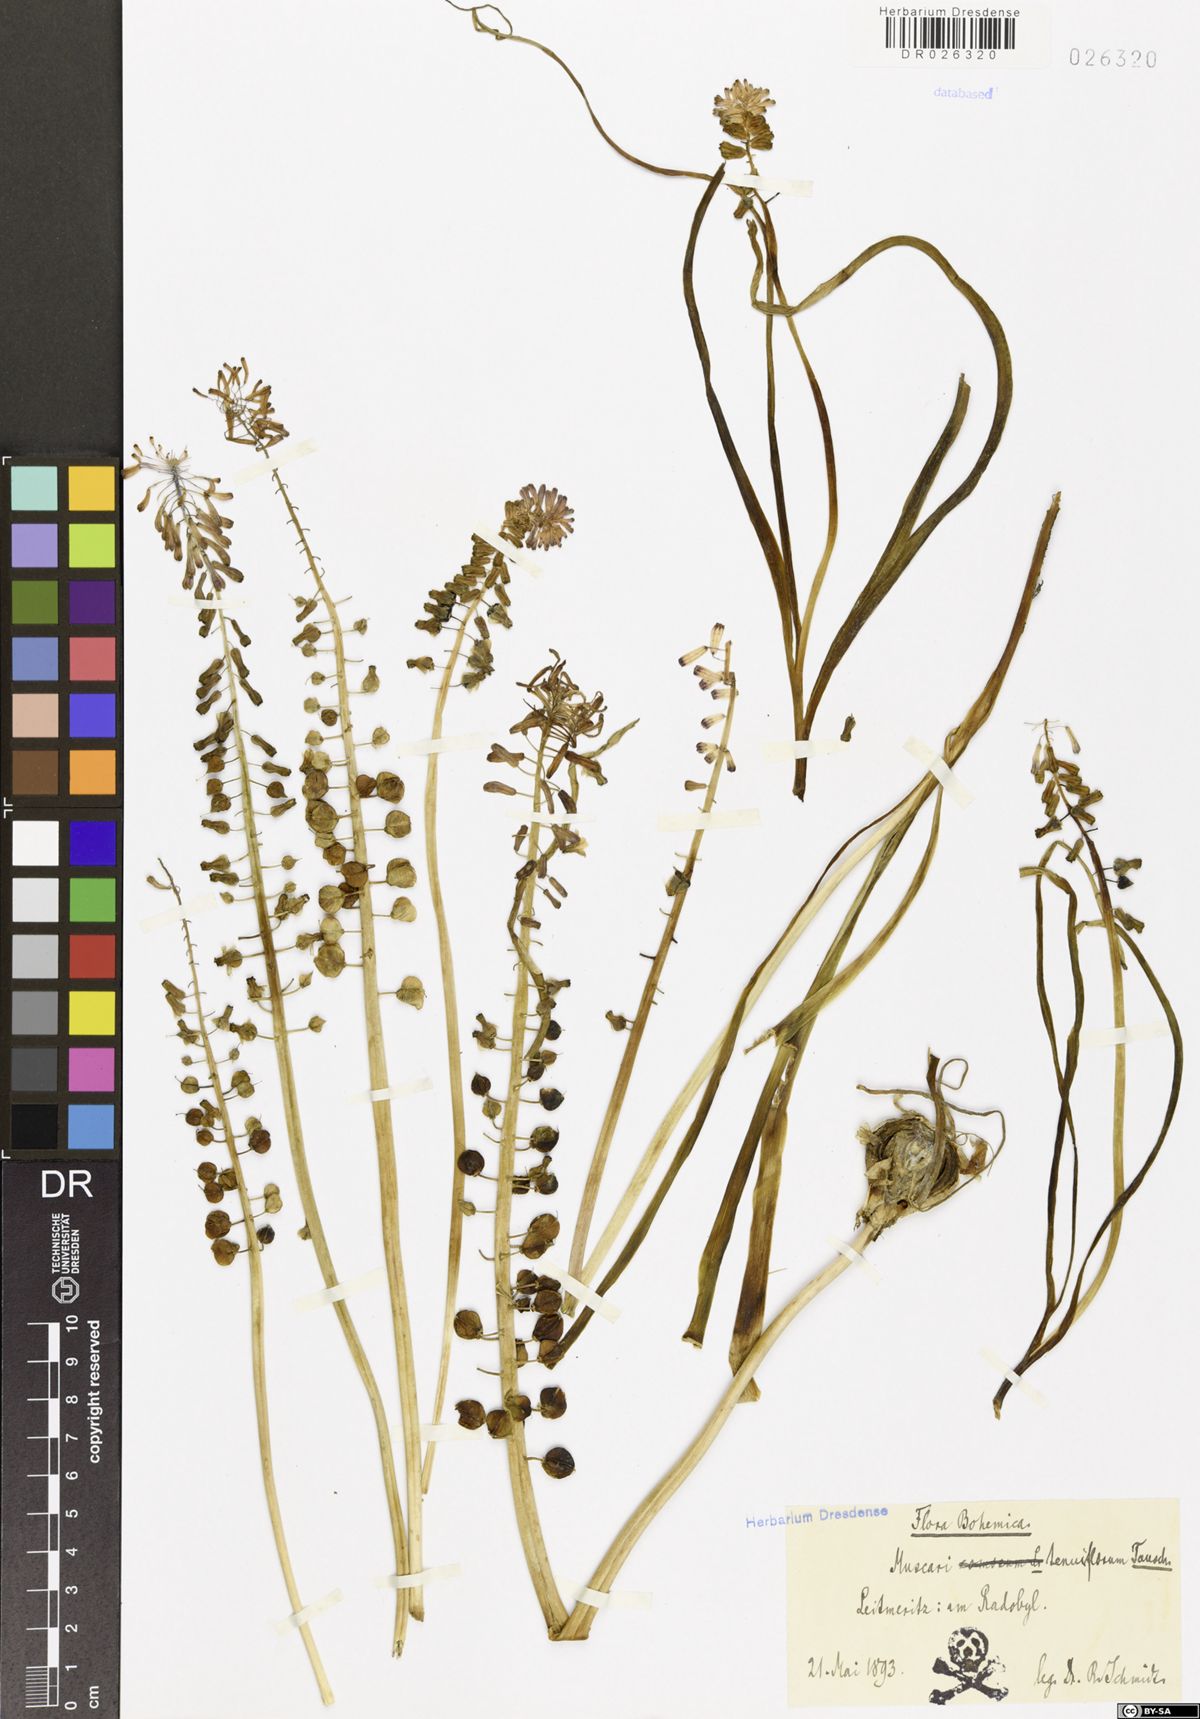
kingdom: Plantae
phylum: Tracheophyta
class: Liliopsida
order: Asparagales
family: Asparagaceae
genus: Muscari
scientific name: Muscari tenuiflorum
